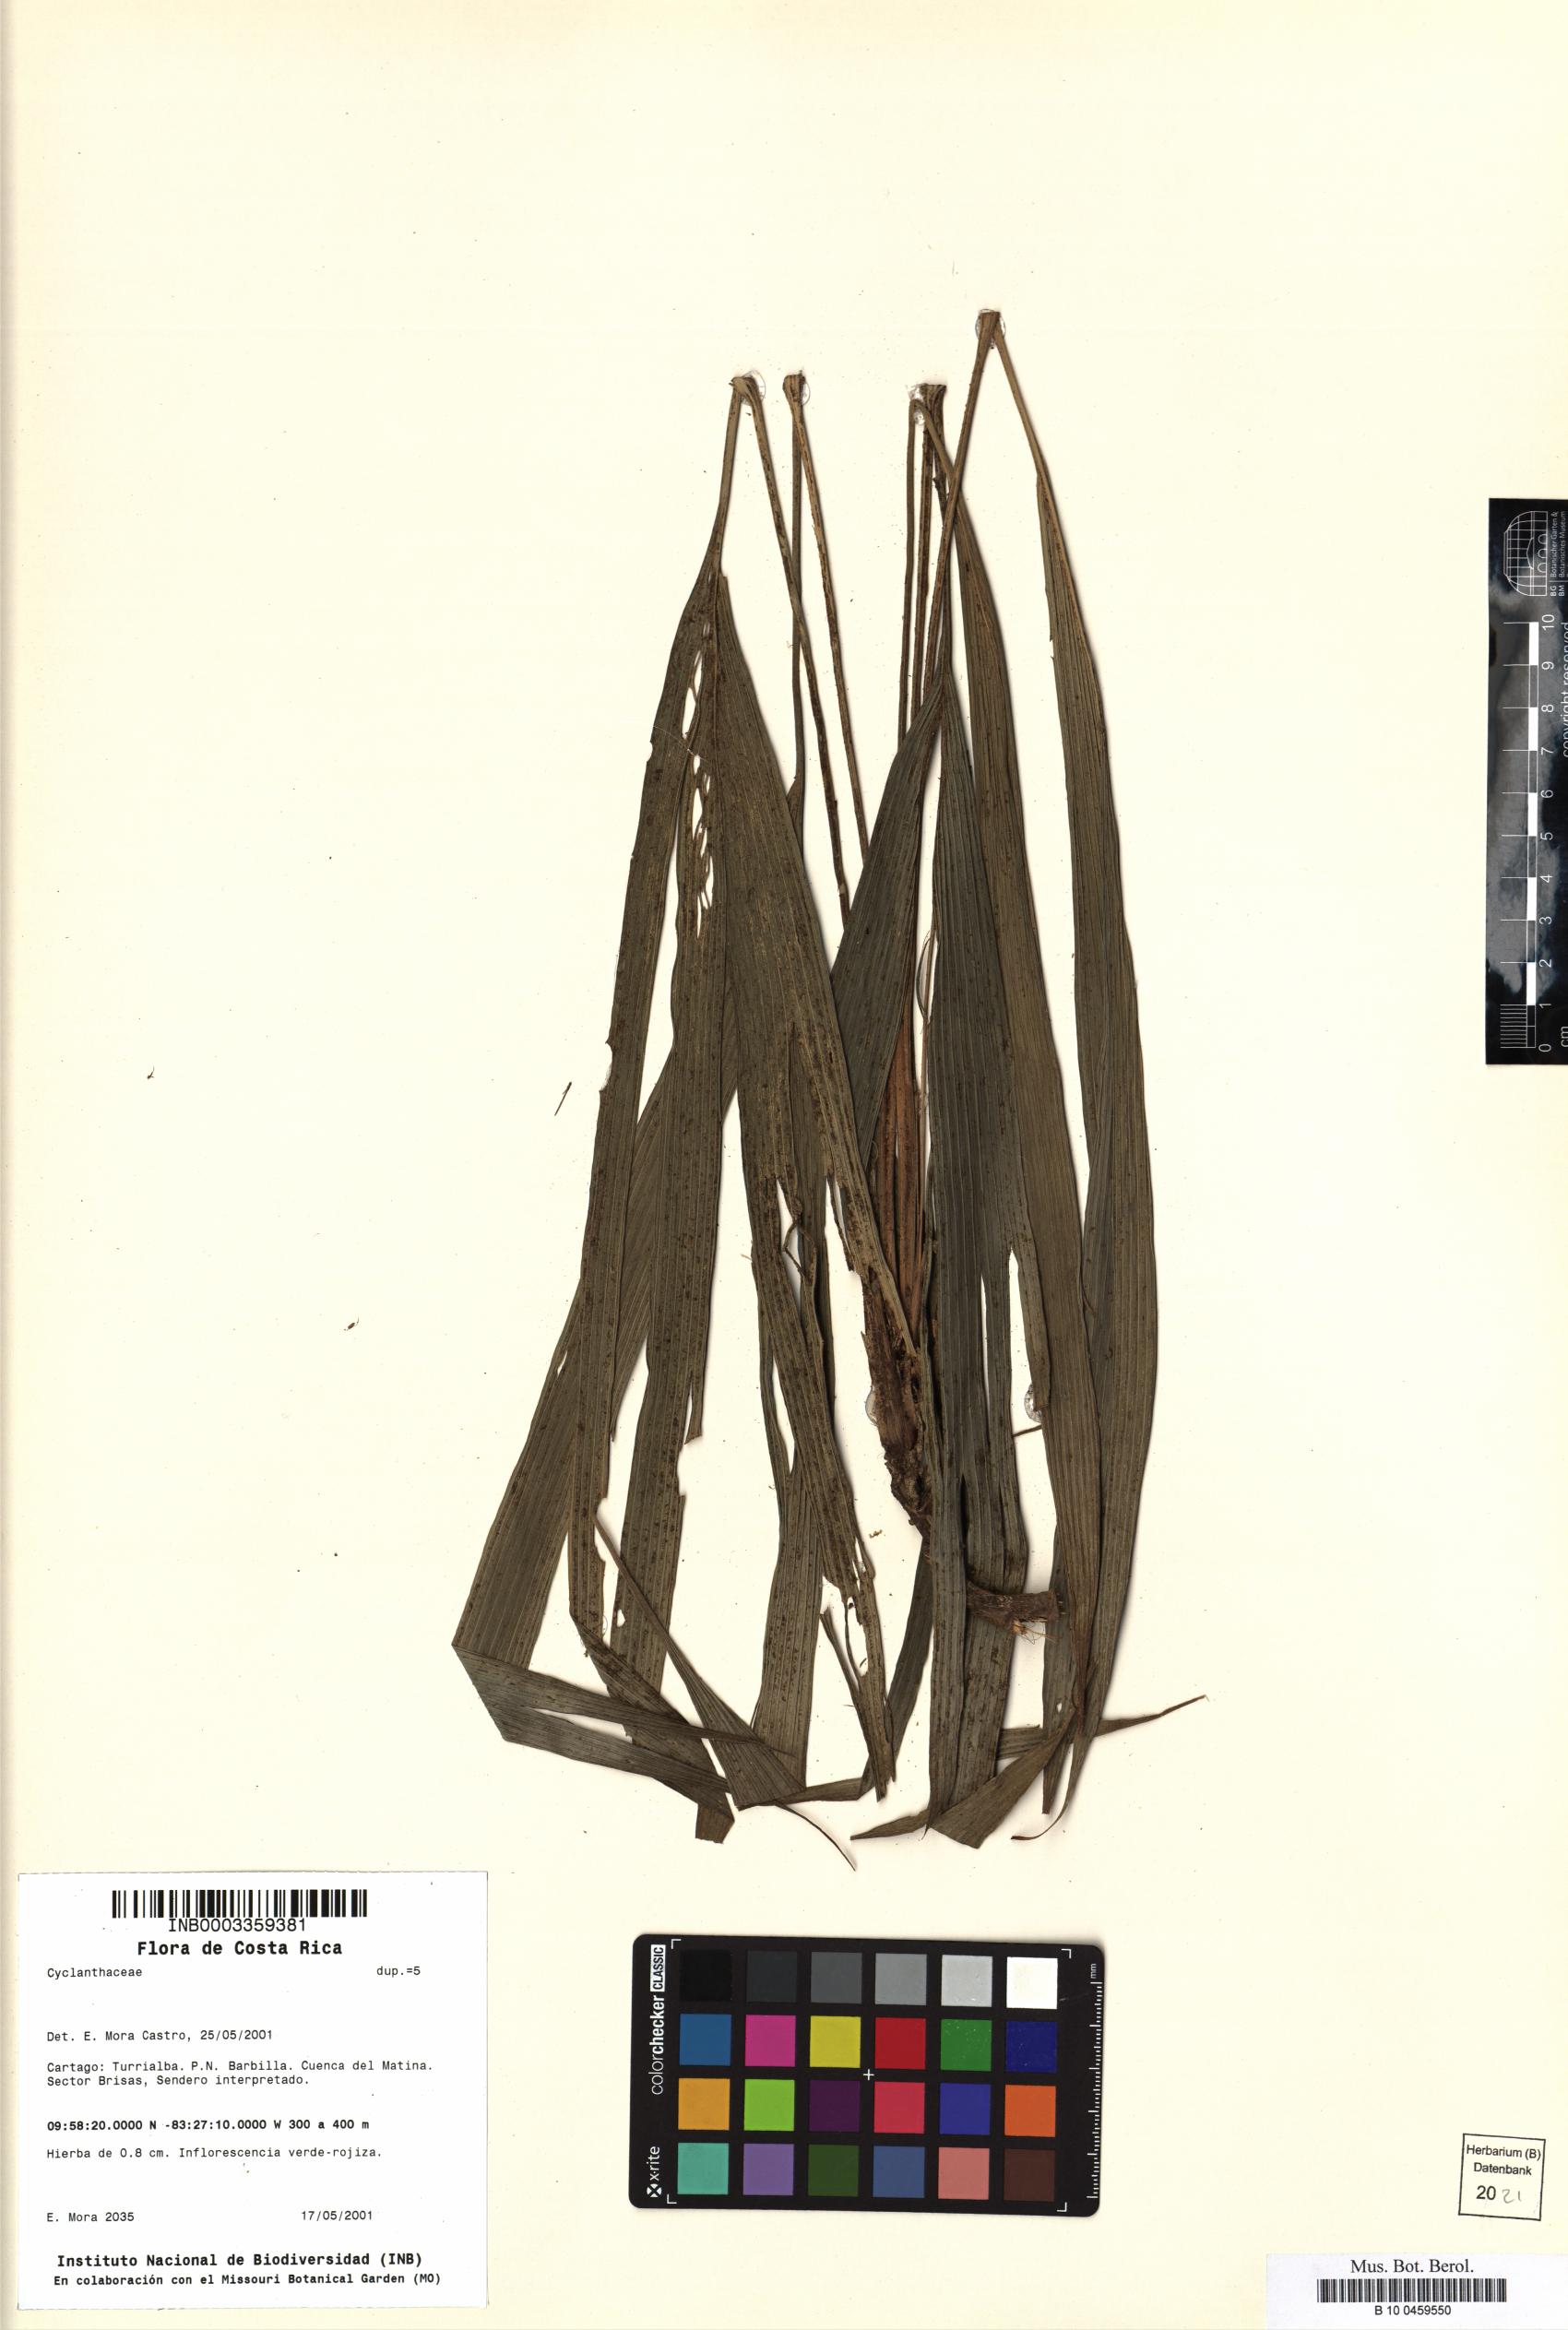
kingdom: Plantae
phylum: Tracheophyta
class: Liliopsida
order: Pandanales
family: Cyclanthaceae
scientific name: Cyclanthaceae
